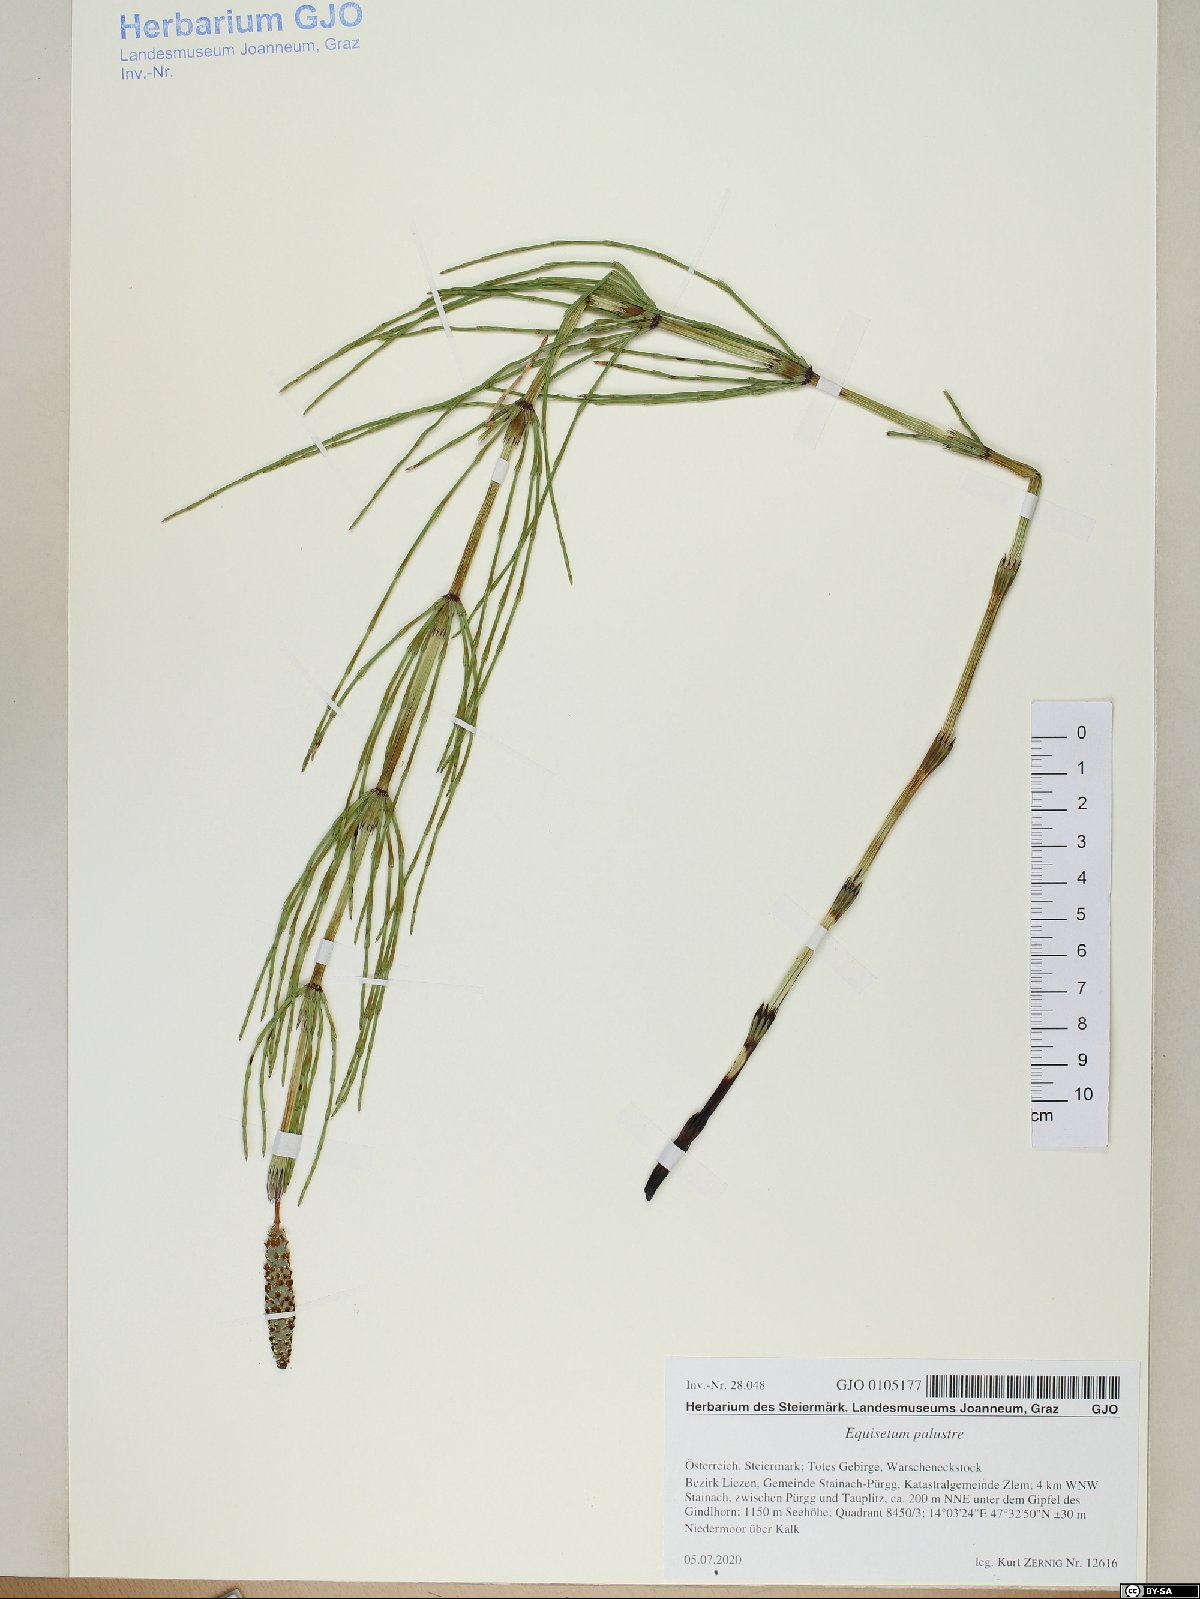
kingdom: Plantae
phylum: Tracheophyta
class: Polypodiopsida
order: Equisetales
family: Equisetaceae
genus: Equisetum
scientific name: Equisetum palustre
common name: Marsh horsetail
